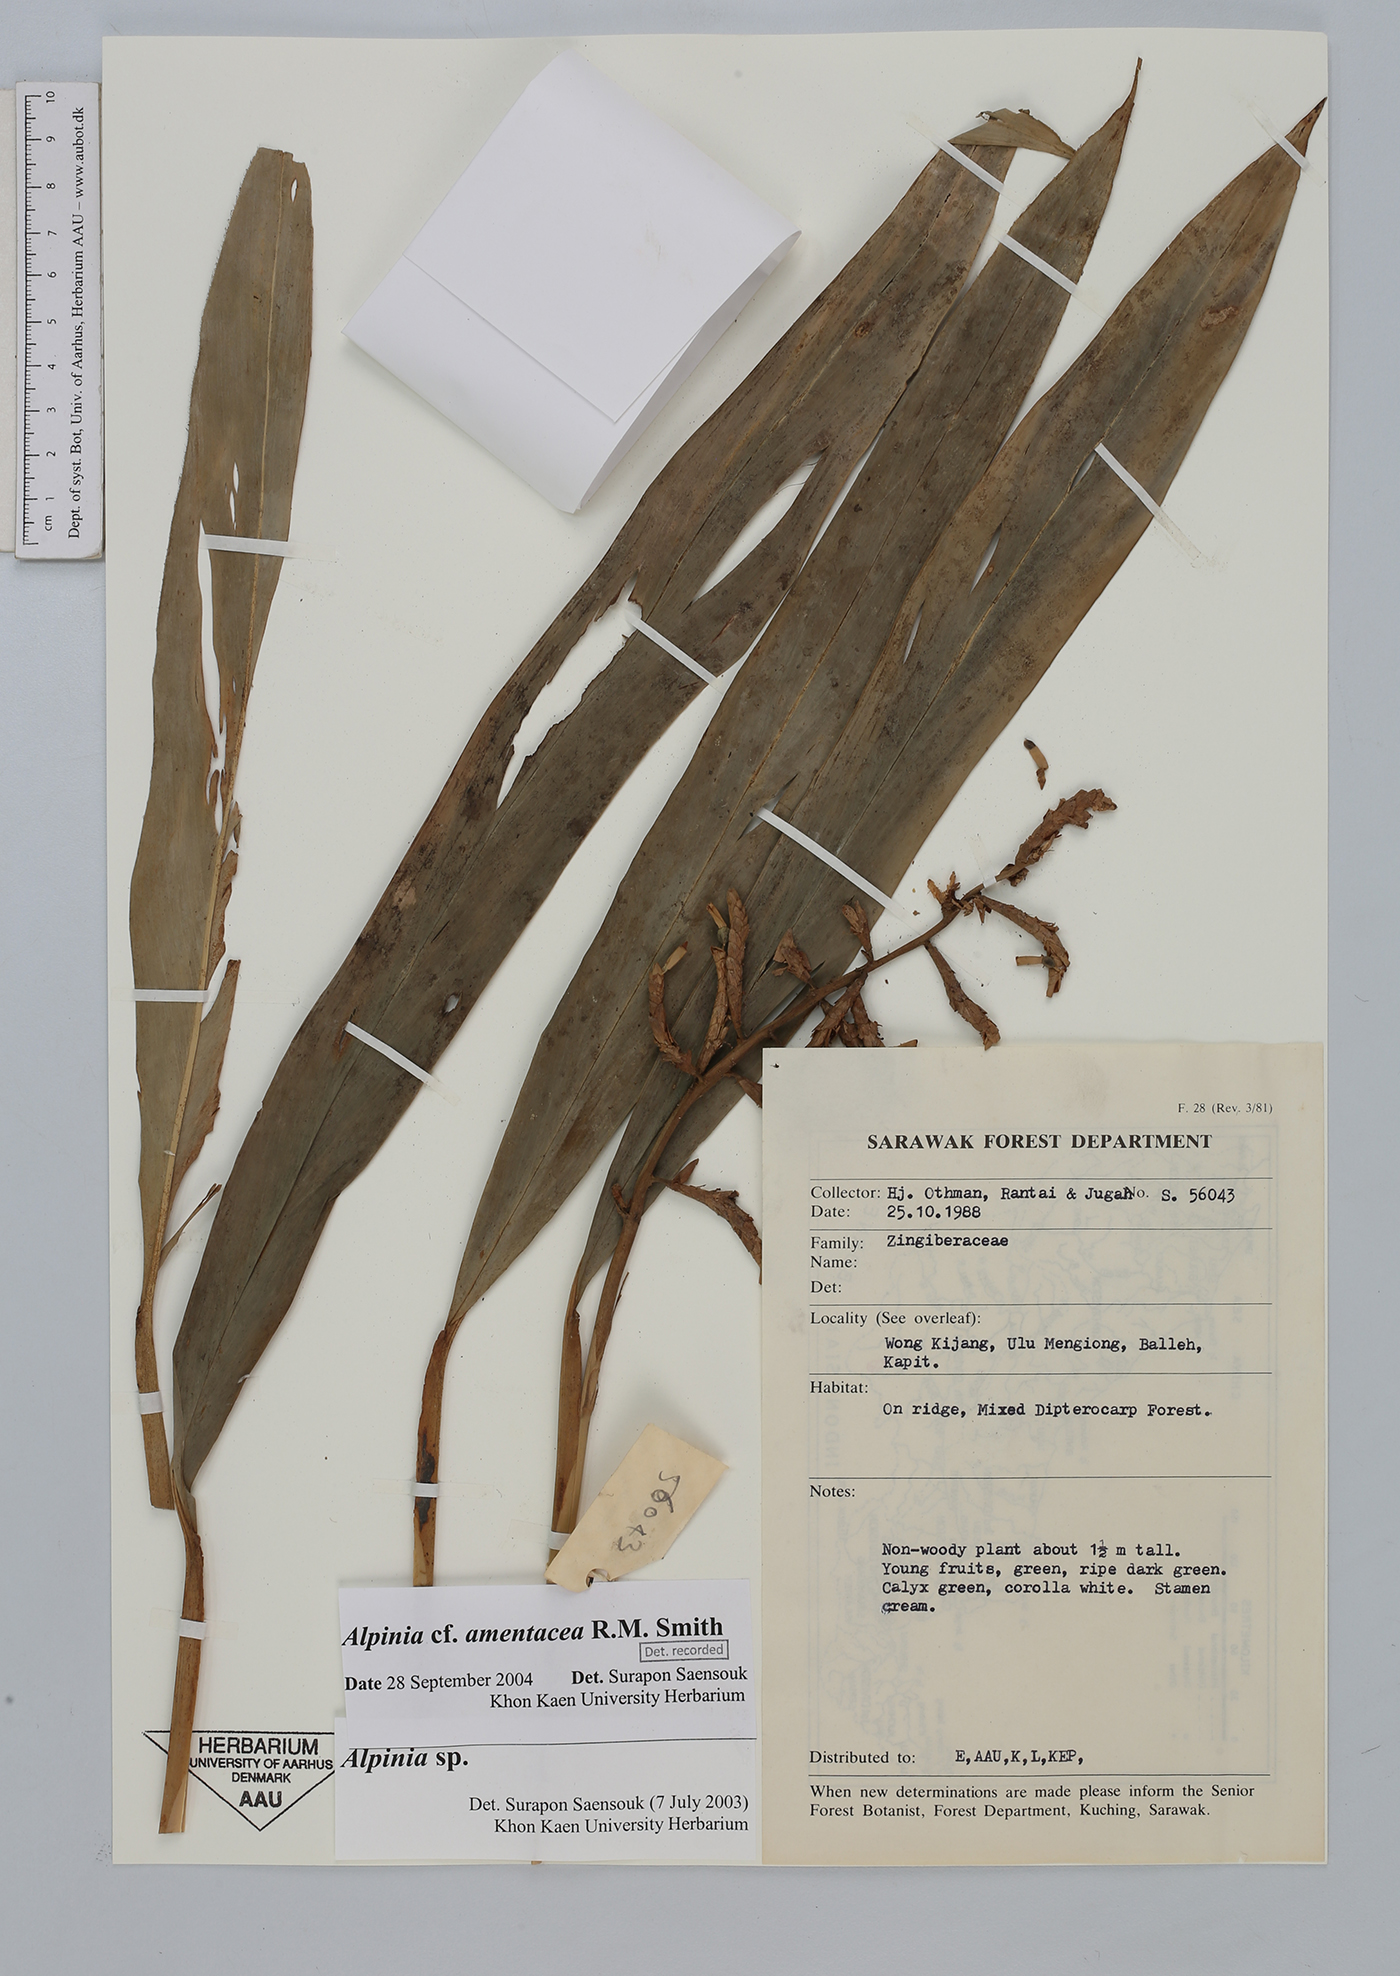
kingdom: Plantae
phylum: Tracheophyta
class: Liliopsida
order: Zingiberales
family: Zingiberaceae
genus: Alpinia
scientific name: Alpinia amentacea
